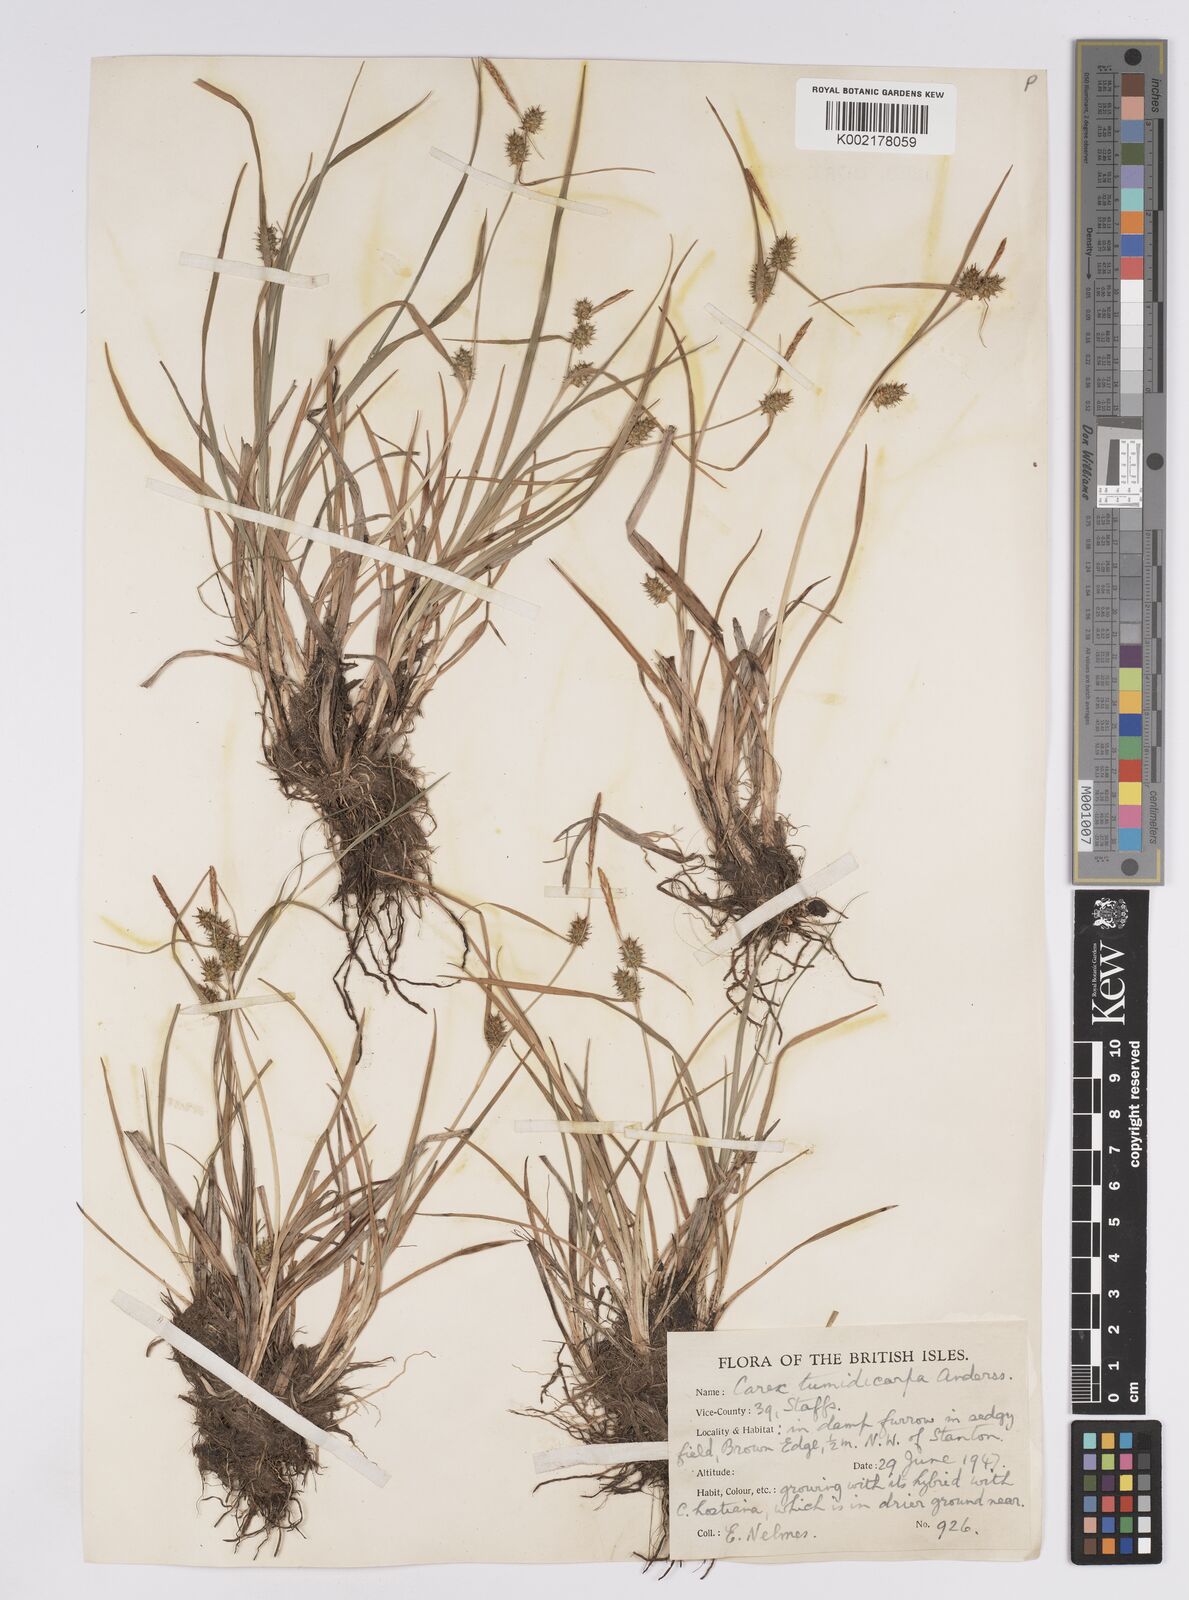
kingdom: Plantae
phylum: Tracheophyta
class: Liliopsida
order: Poales
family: Cyperaceae
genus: Carex
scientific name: Carex demissa
